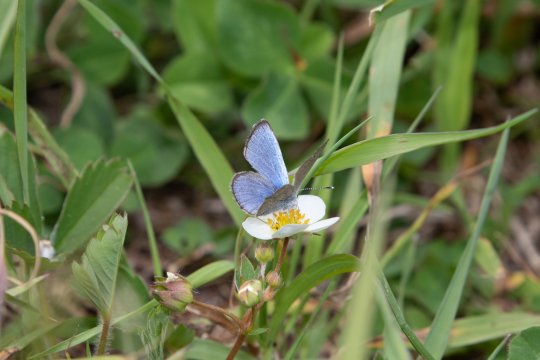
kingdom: Animalia
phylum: Arthropoda
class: Insecta
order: Lepidoptera
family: Lycaenidae
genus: Glaucopsyche
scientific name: Glaucopsyche lygdamus
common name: Silvery Blue
